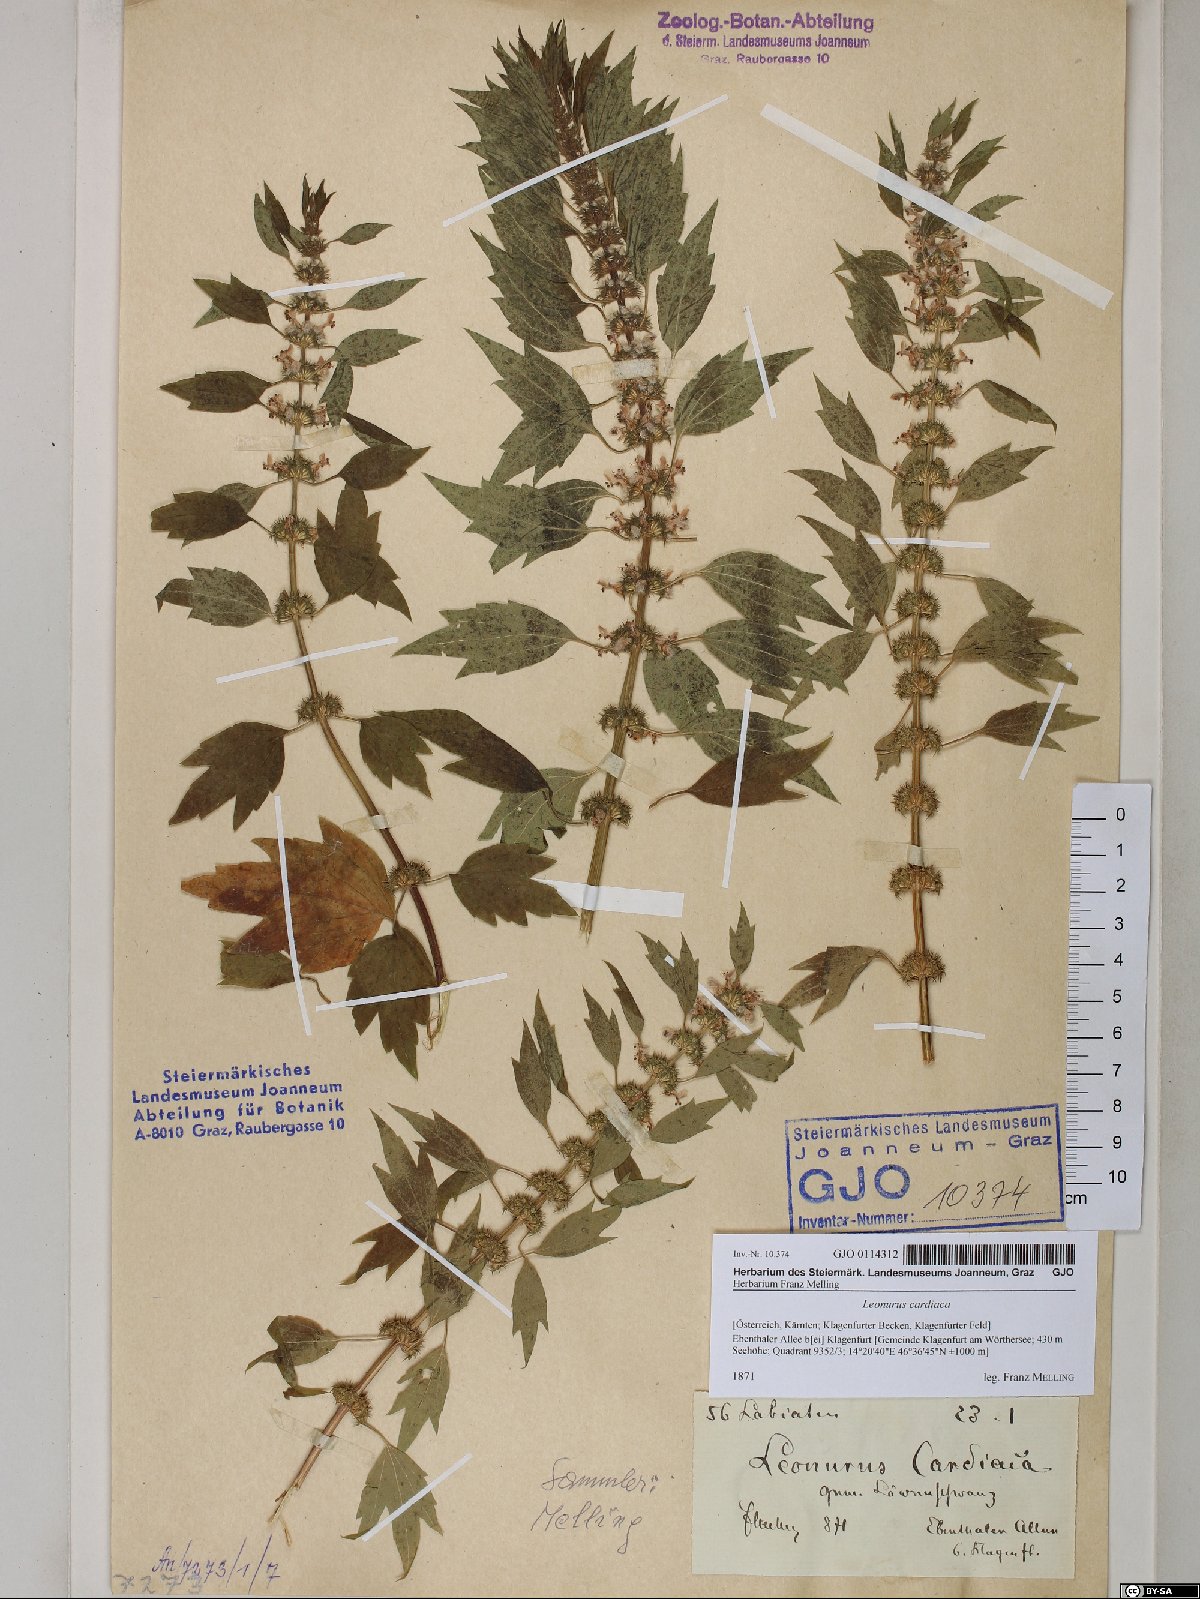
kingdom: Plantae
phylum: Tracheophyta
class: Magnoliopsida
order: Lamiales
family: Lamiaceae
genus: Leonurus
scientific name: Leonurus cardiaca
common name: Motherwort
